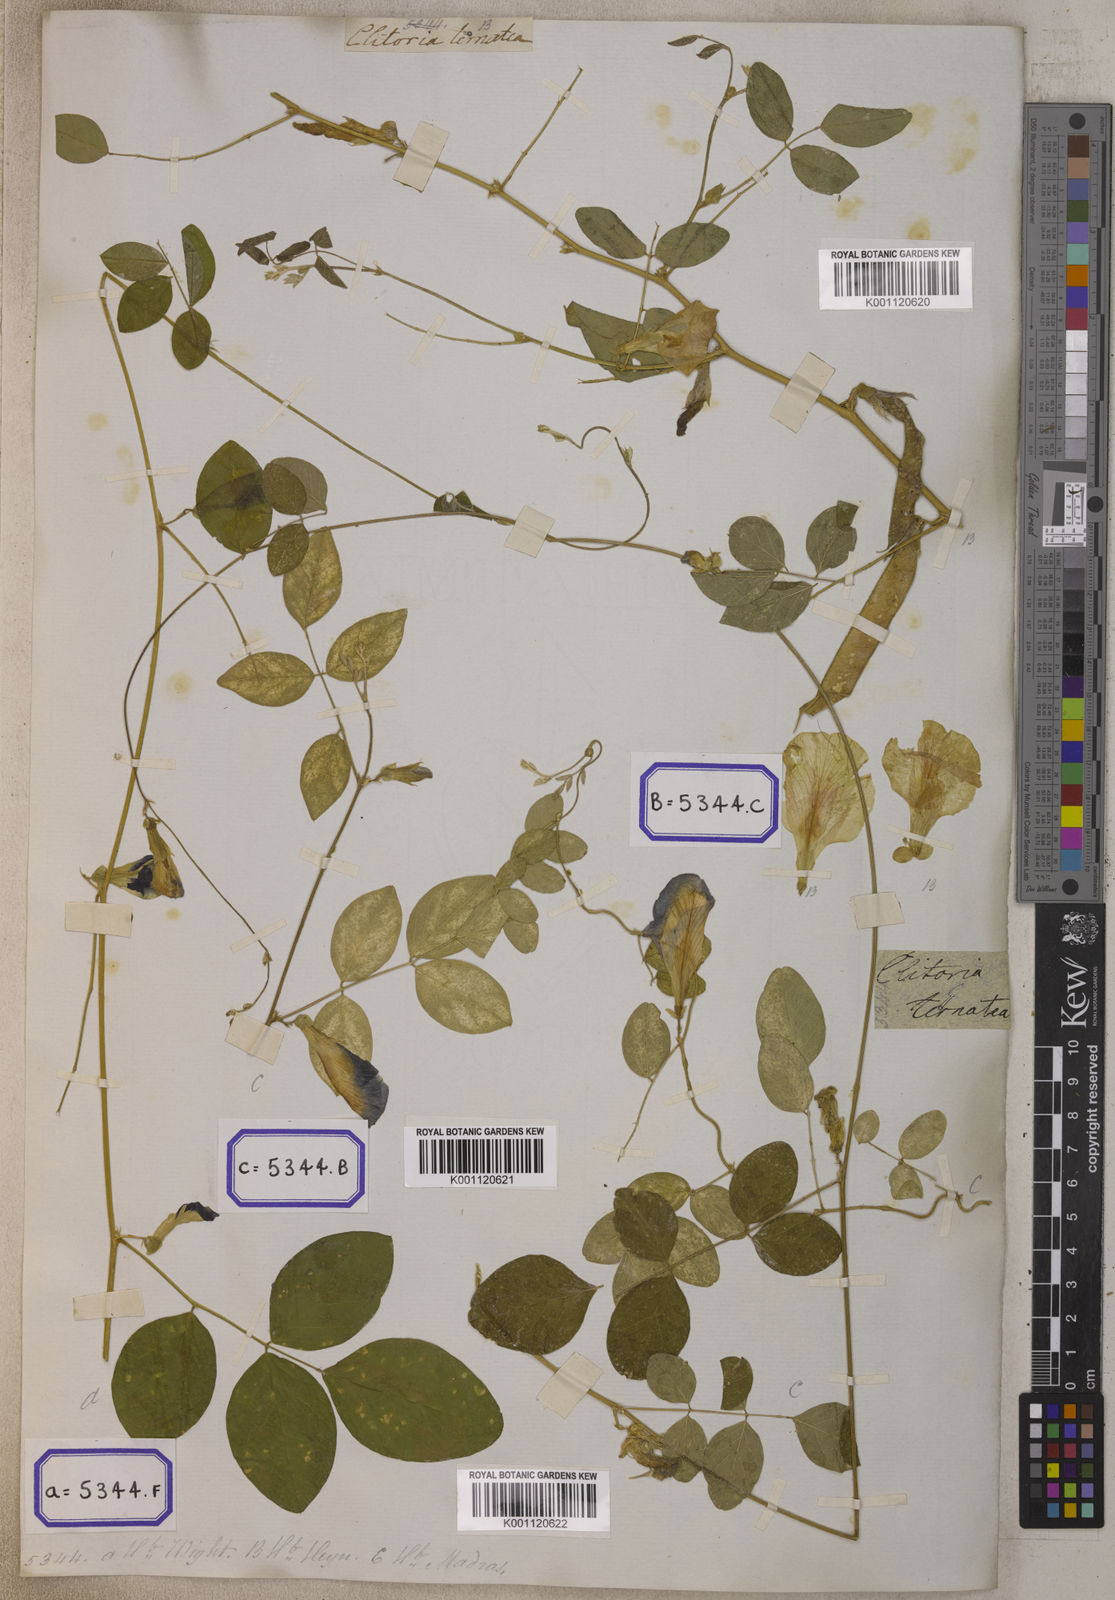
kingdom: Plantae
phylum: Tracheophyta
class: Magnoliopsida
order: Fabales
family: Fabaceae
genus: Clitoria
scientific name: Clitoria ternatea
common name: Asian pigeonwings
